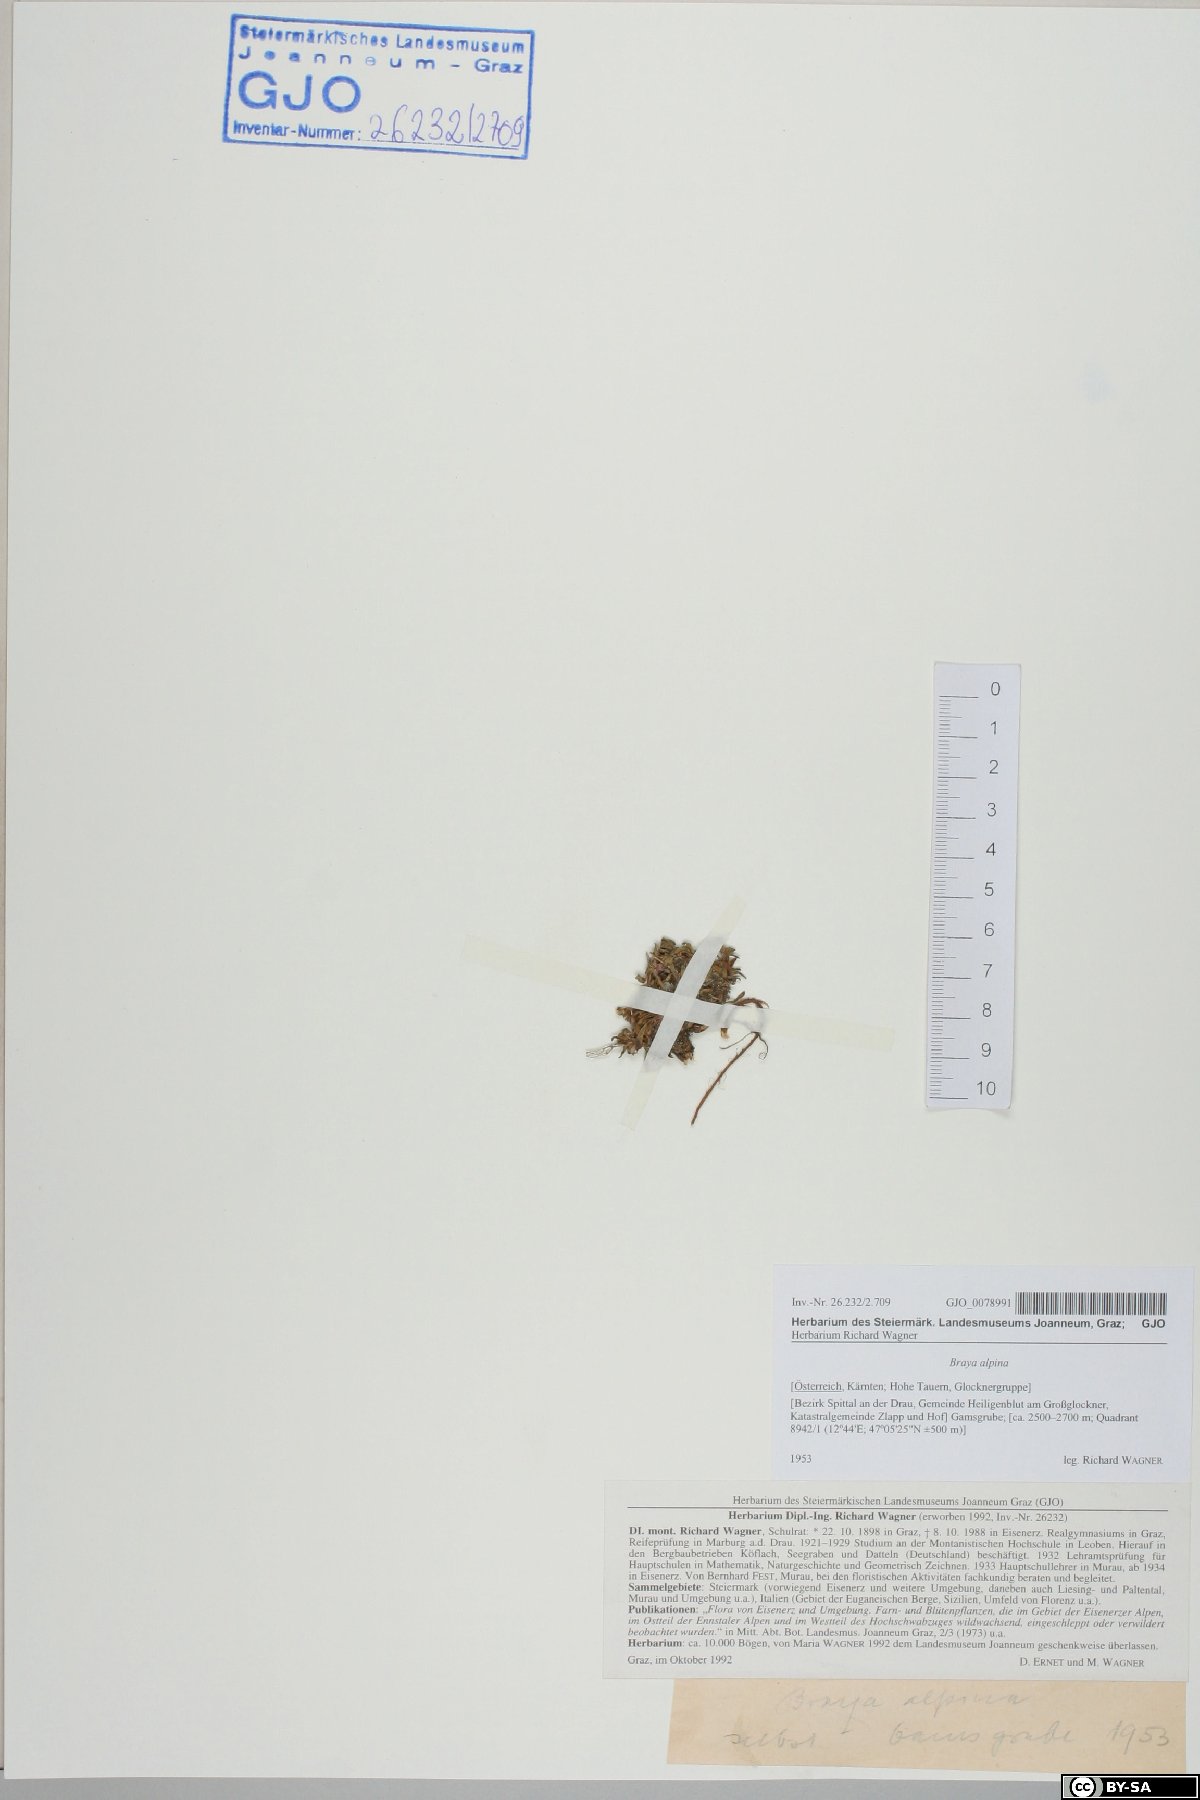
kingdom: Plantae
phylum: Tracheophyta
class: Magnoliopsida
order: Brassicales
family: Brassicaceae
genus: Braya
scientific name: Braya alpina
